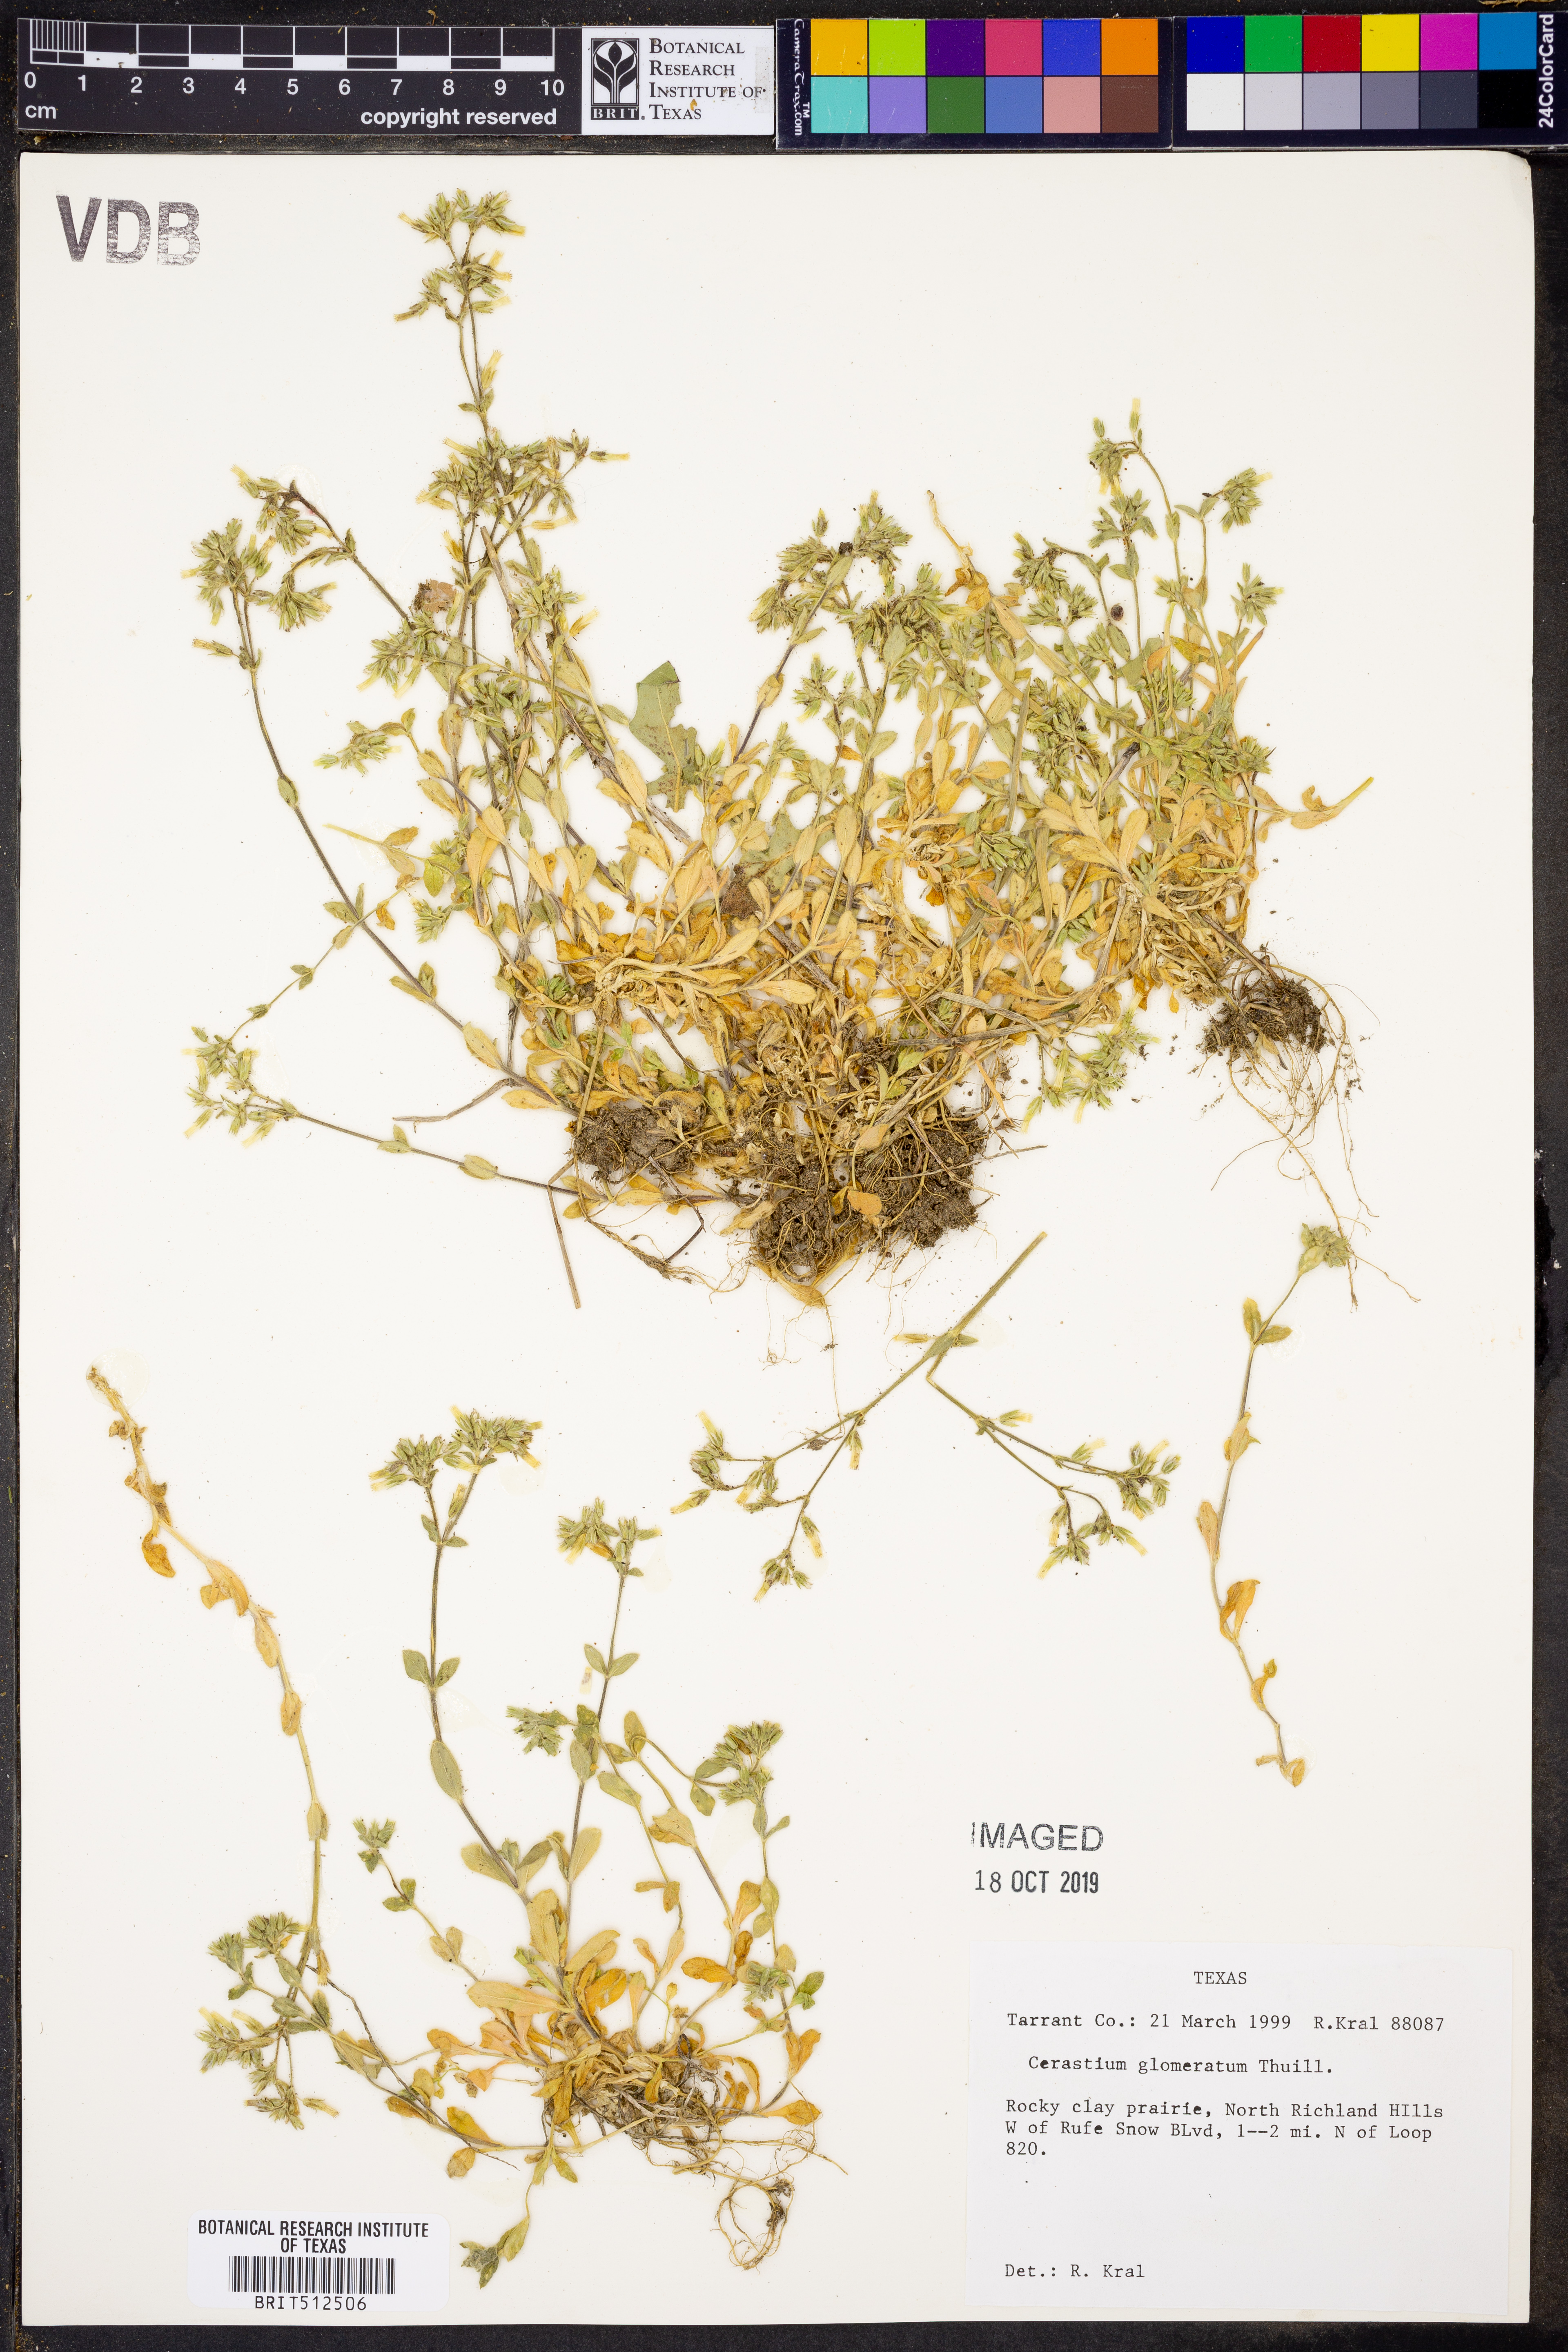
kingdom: Plantae
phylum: Tracheophyta
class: Magnoliopsida
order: Caryophyllales
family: Caryophyllaceae
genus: Cerastium
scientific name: Cerastium glomeratum
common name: Sticky chickweed
